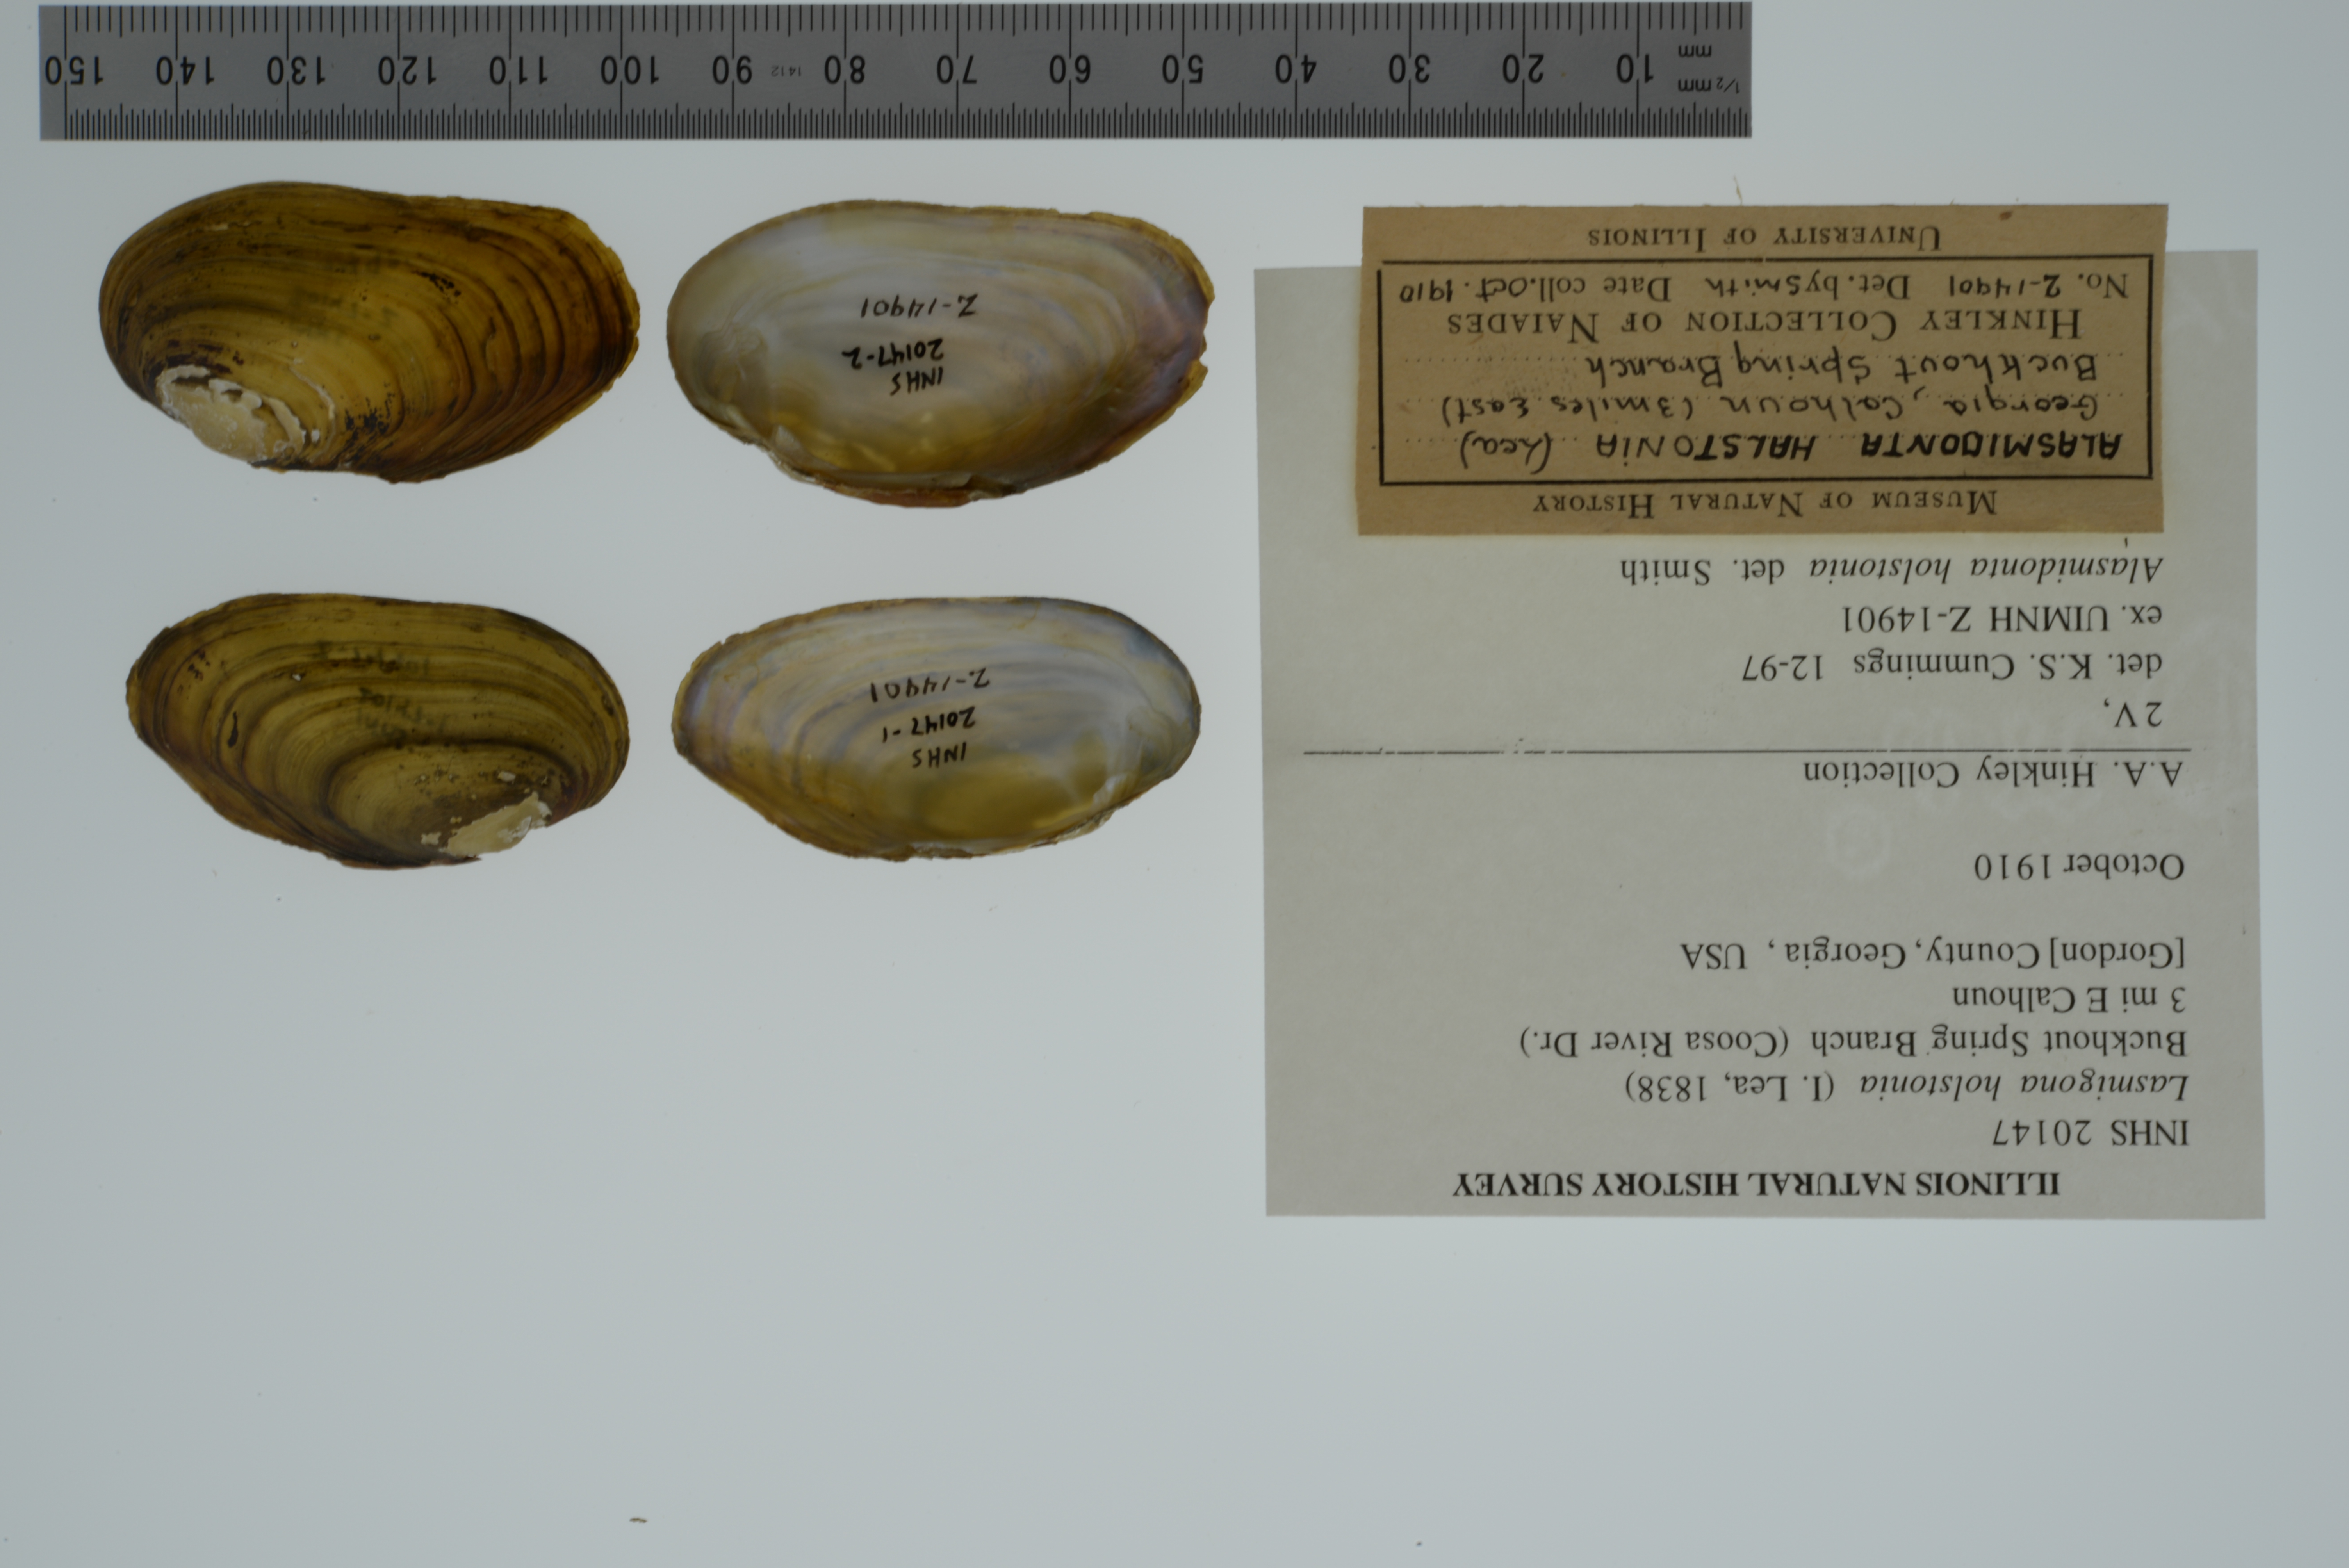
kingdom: Animalia
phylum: Mollusca
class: Bivalvia
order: Unionida
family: Unionidae
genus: Lasmigona
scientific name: Lasmigona holstonia
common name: Tennessee heelsplitter
